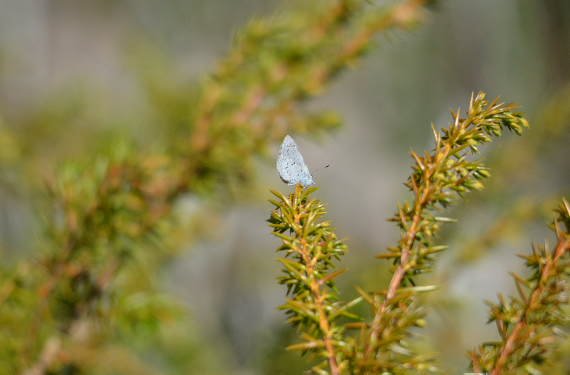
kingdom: Animalia
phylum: Arthropoda
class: Insecta
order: Lepidoptera
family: Lycaenidae
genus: Celastrina
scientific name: Celastrina
